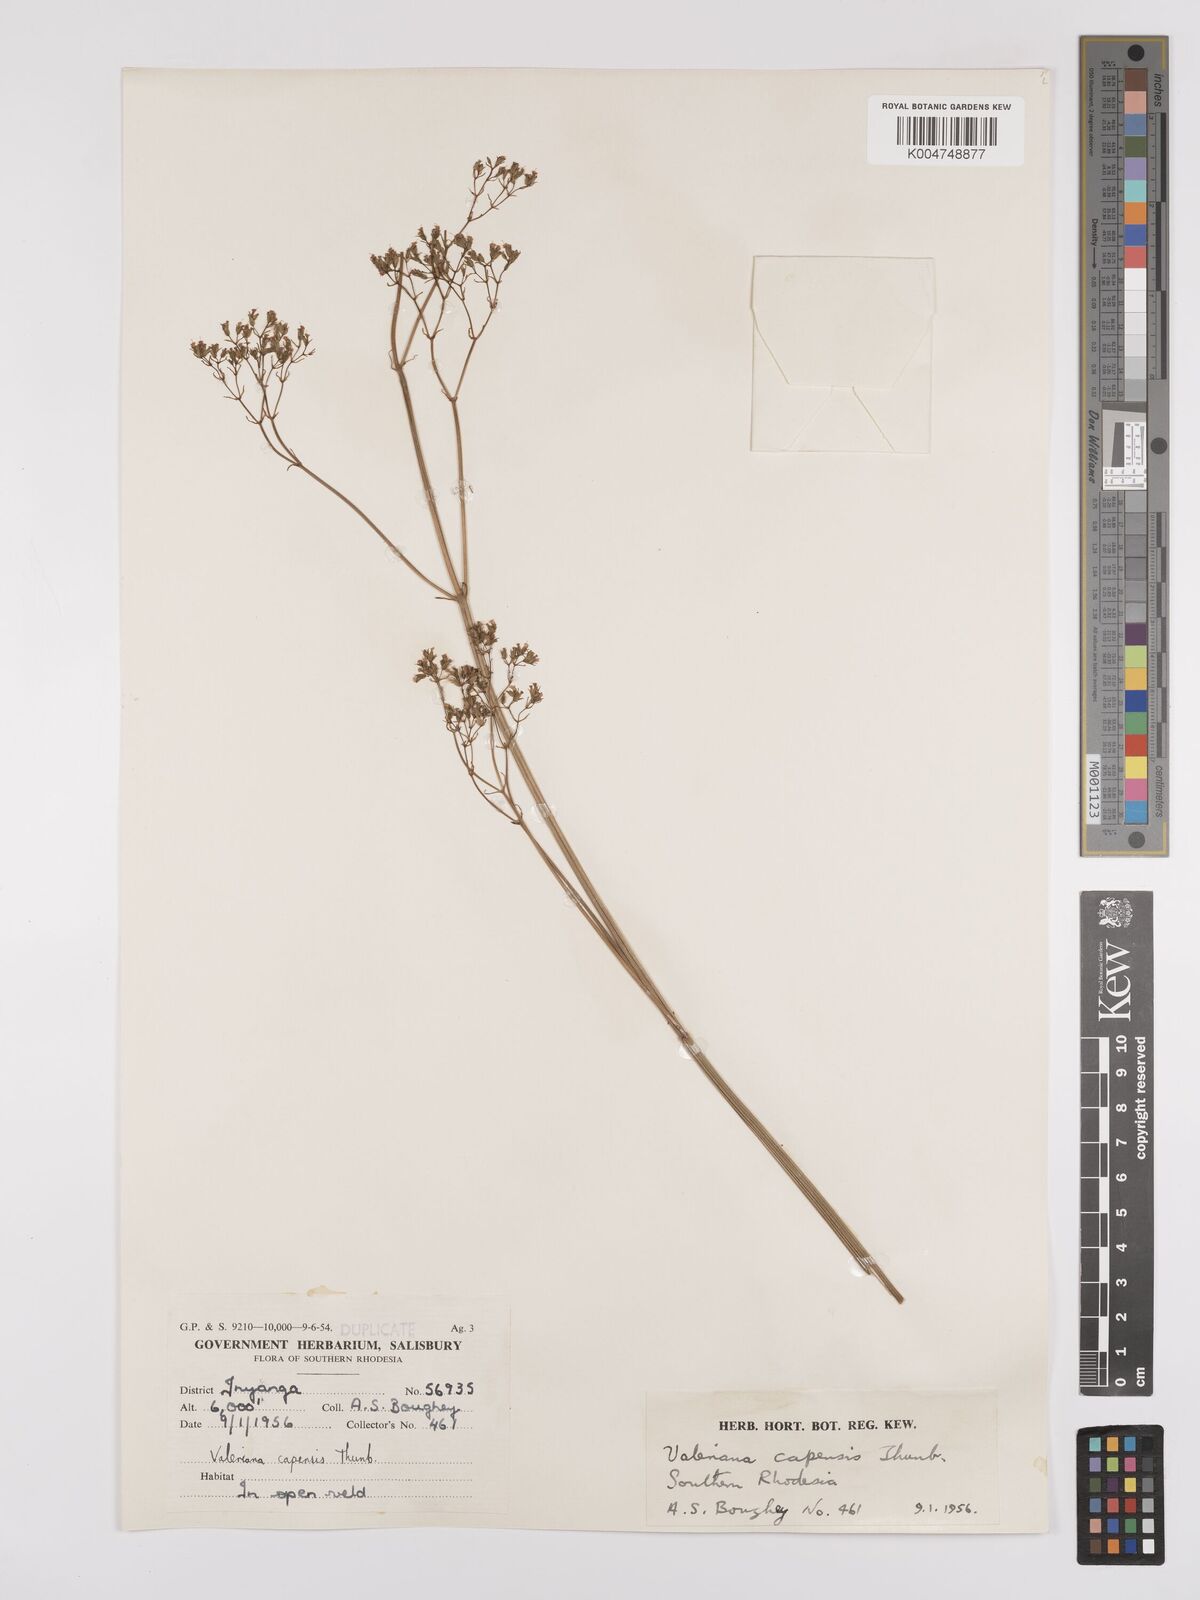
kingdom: Plantae
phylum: Tracheophyta
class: Magnoliopsida
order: Dipsacales
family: Caprifoliaceae
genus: Valeriana
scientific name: Valeriana capensis
